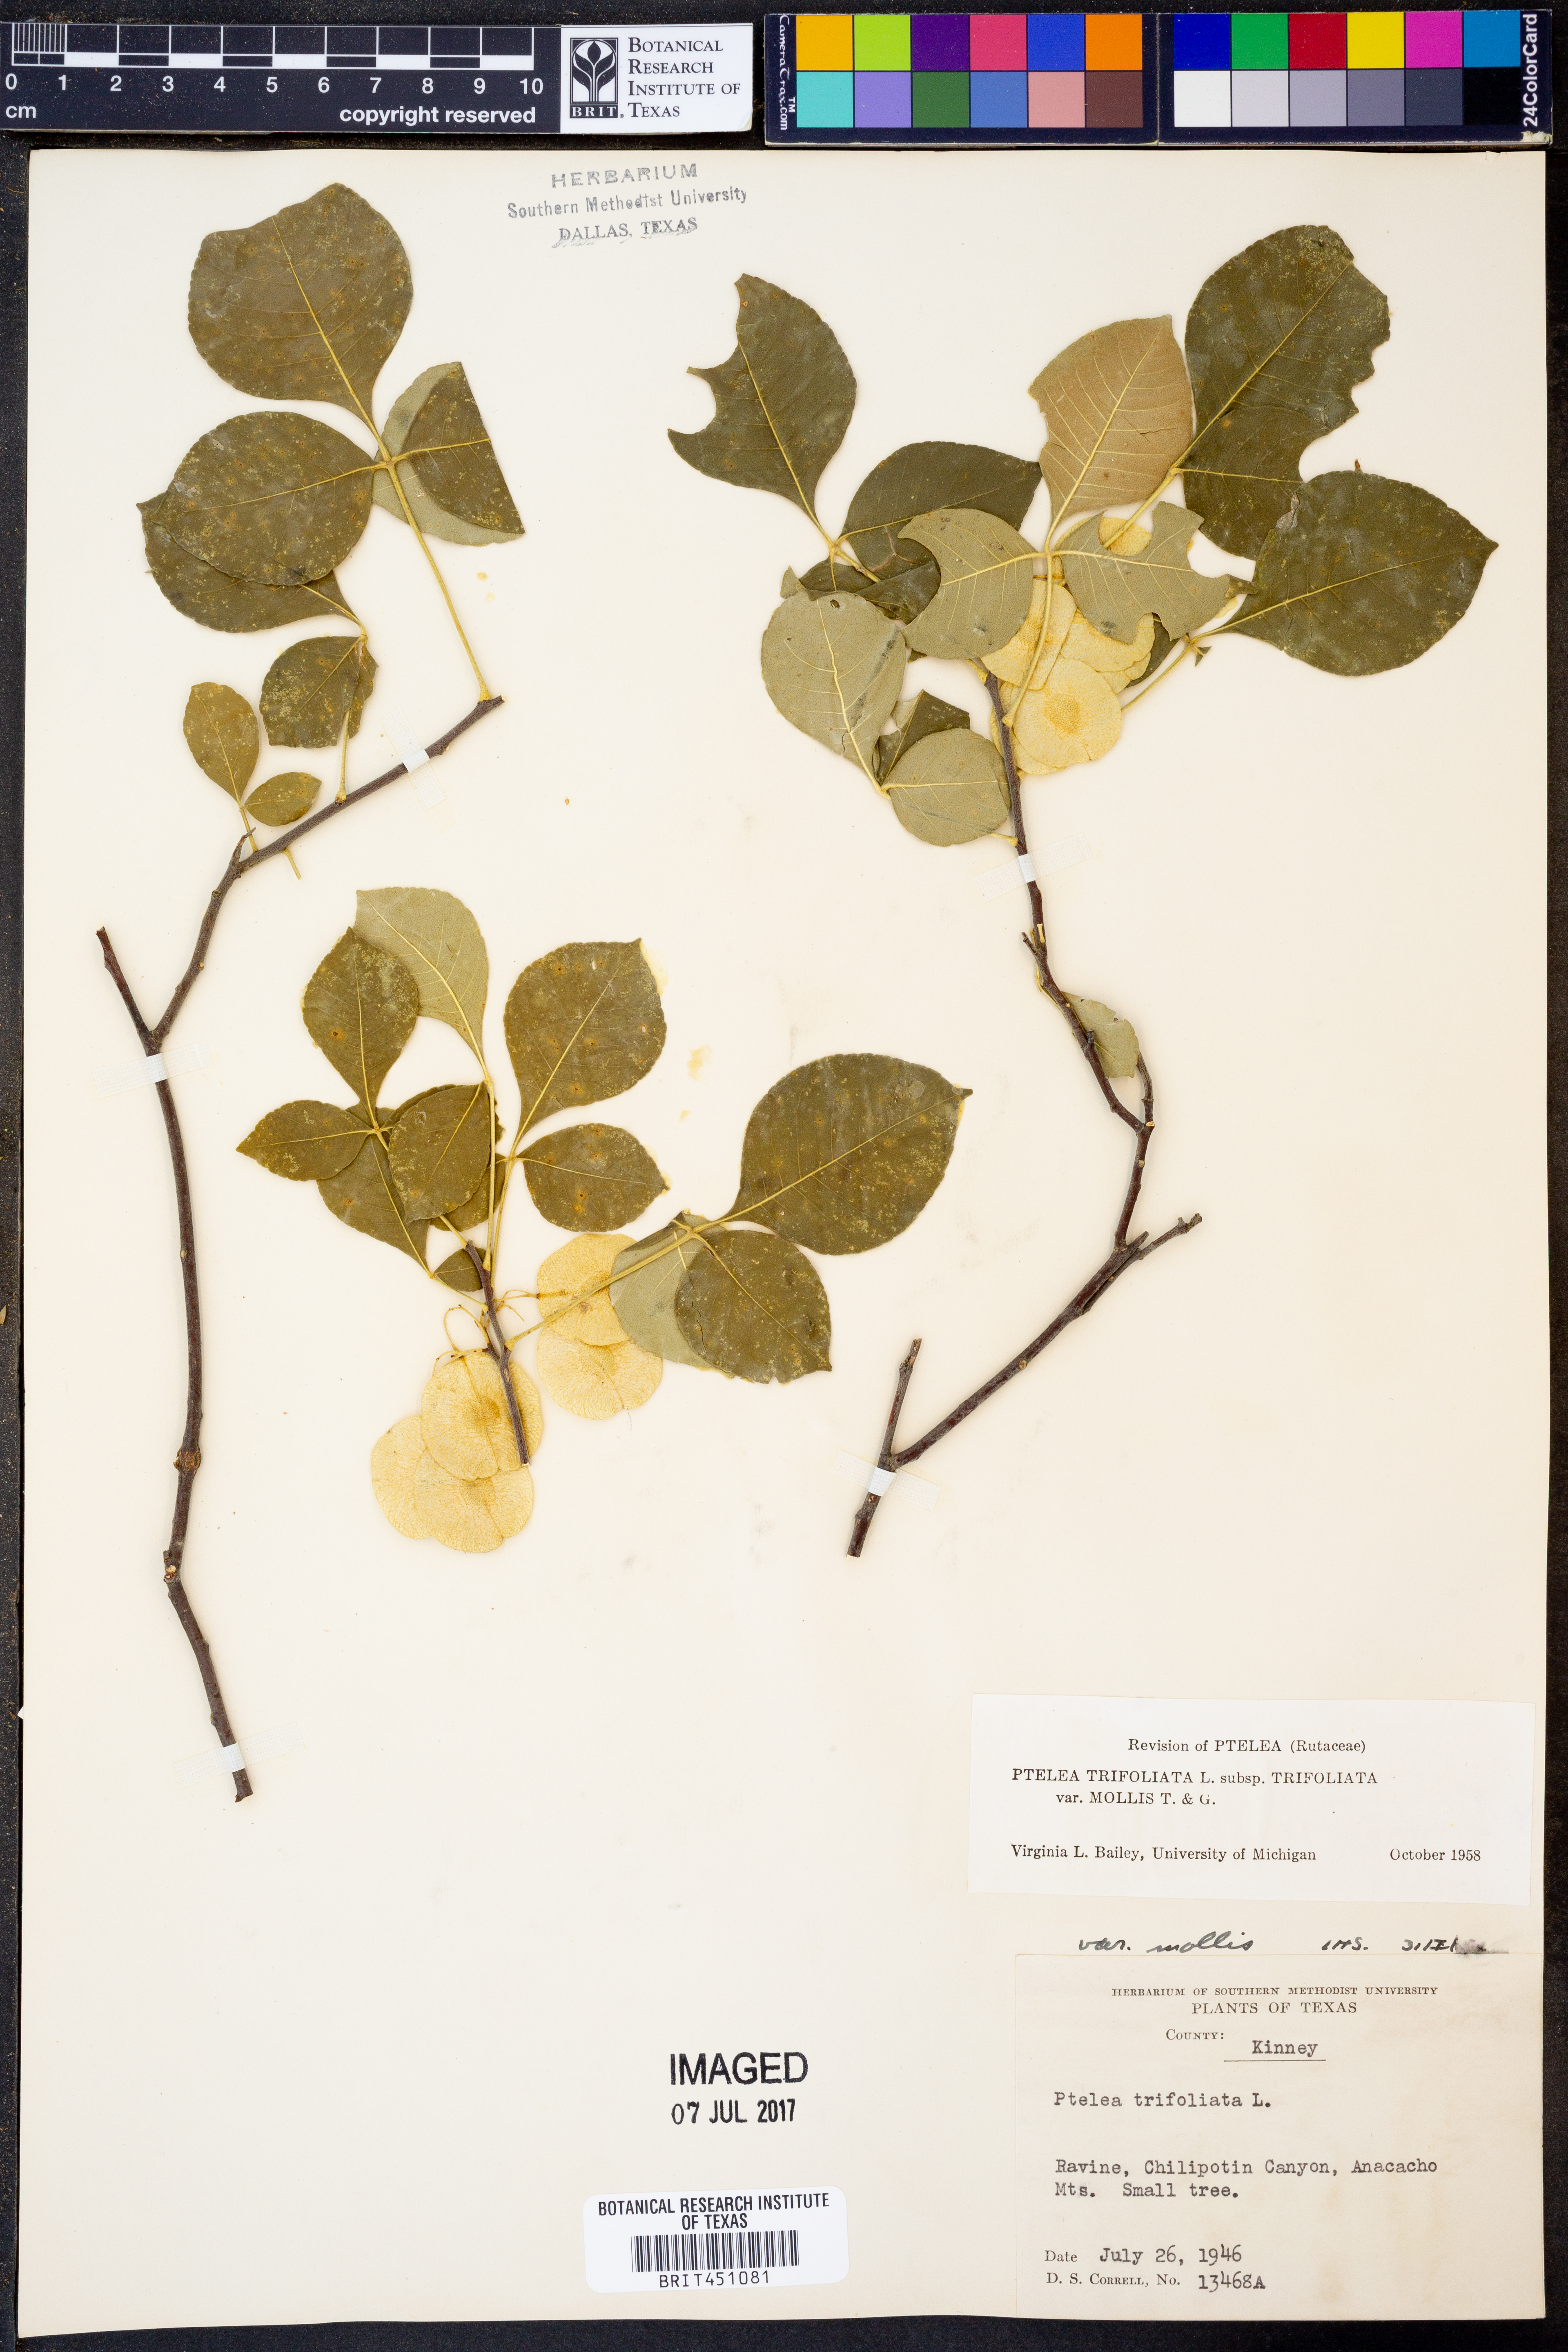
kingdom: Plantae
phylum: Tracheophyta
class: Magnoliopsida
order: Sapindales
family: Rutaceae
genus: Ptelea
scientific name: Ptelea trifoliata
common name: Common hop-tree
